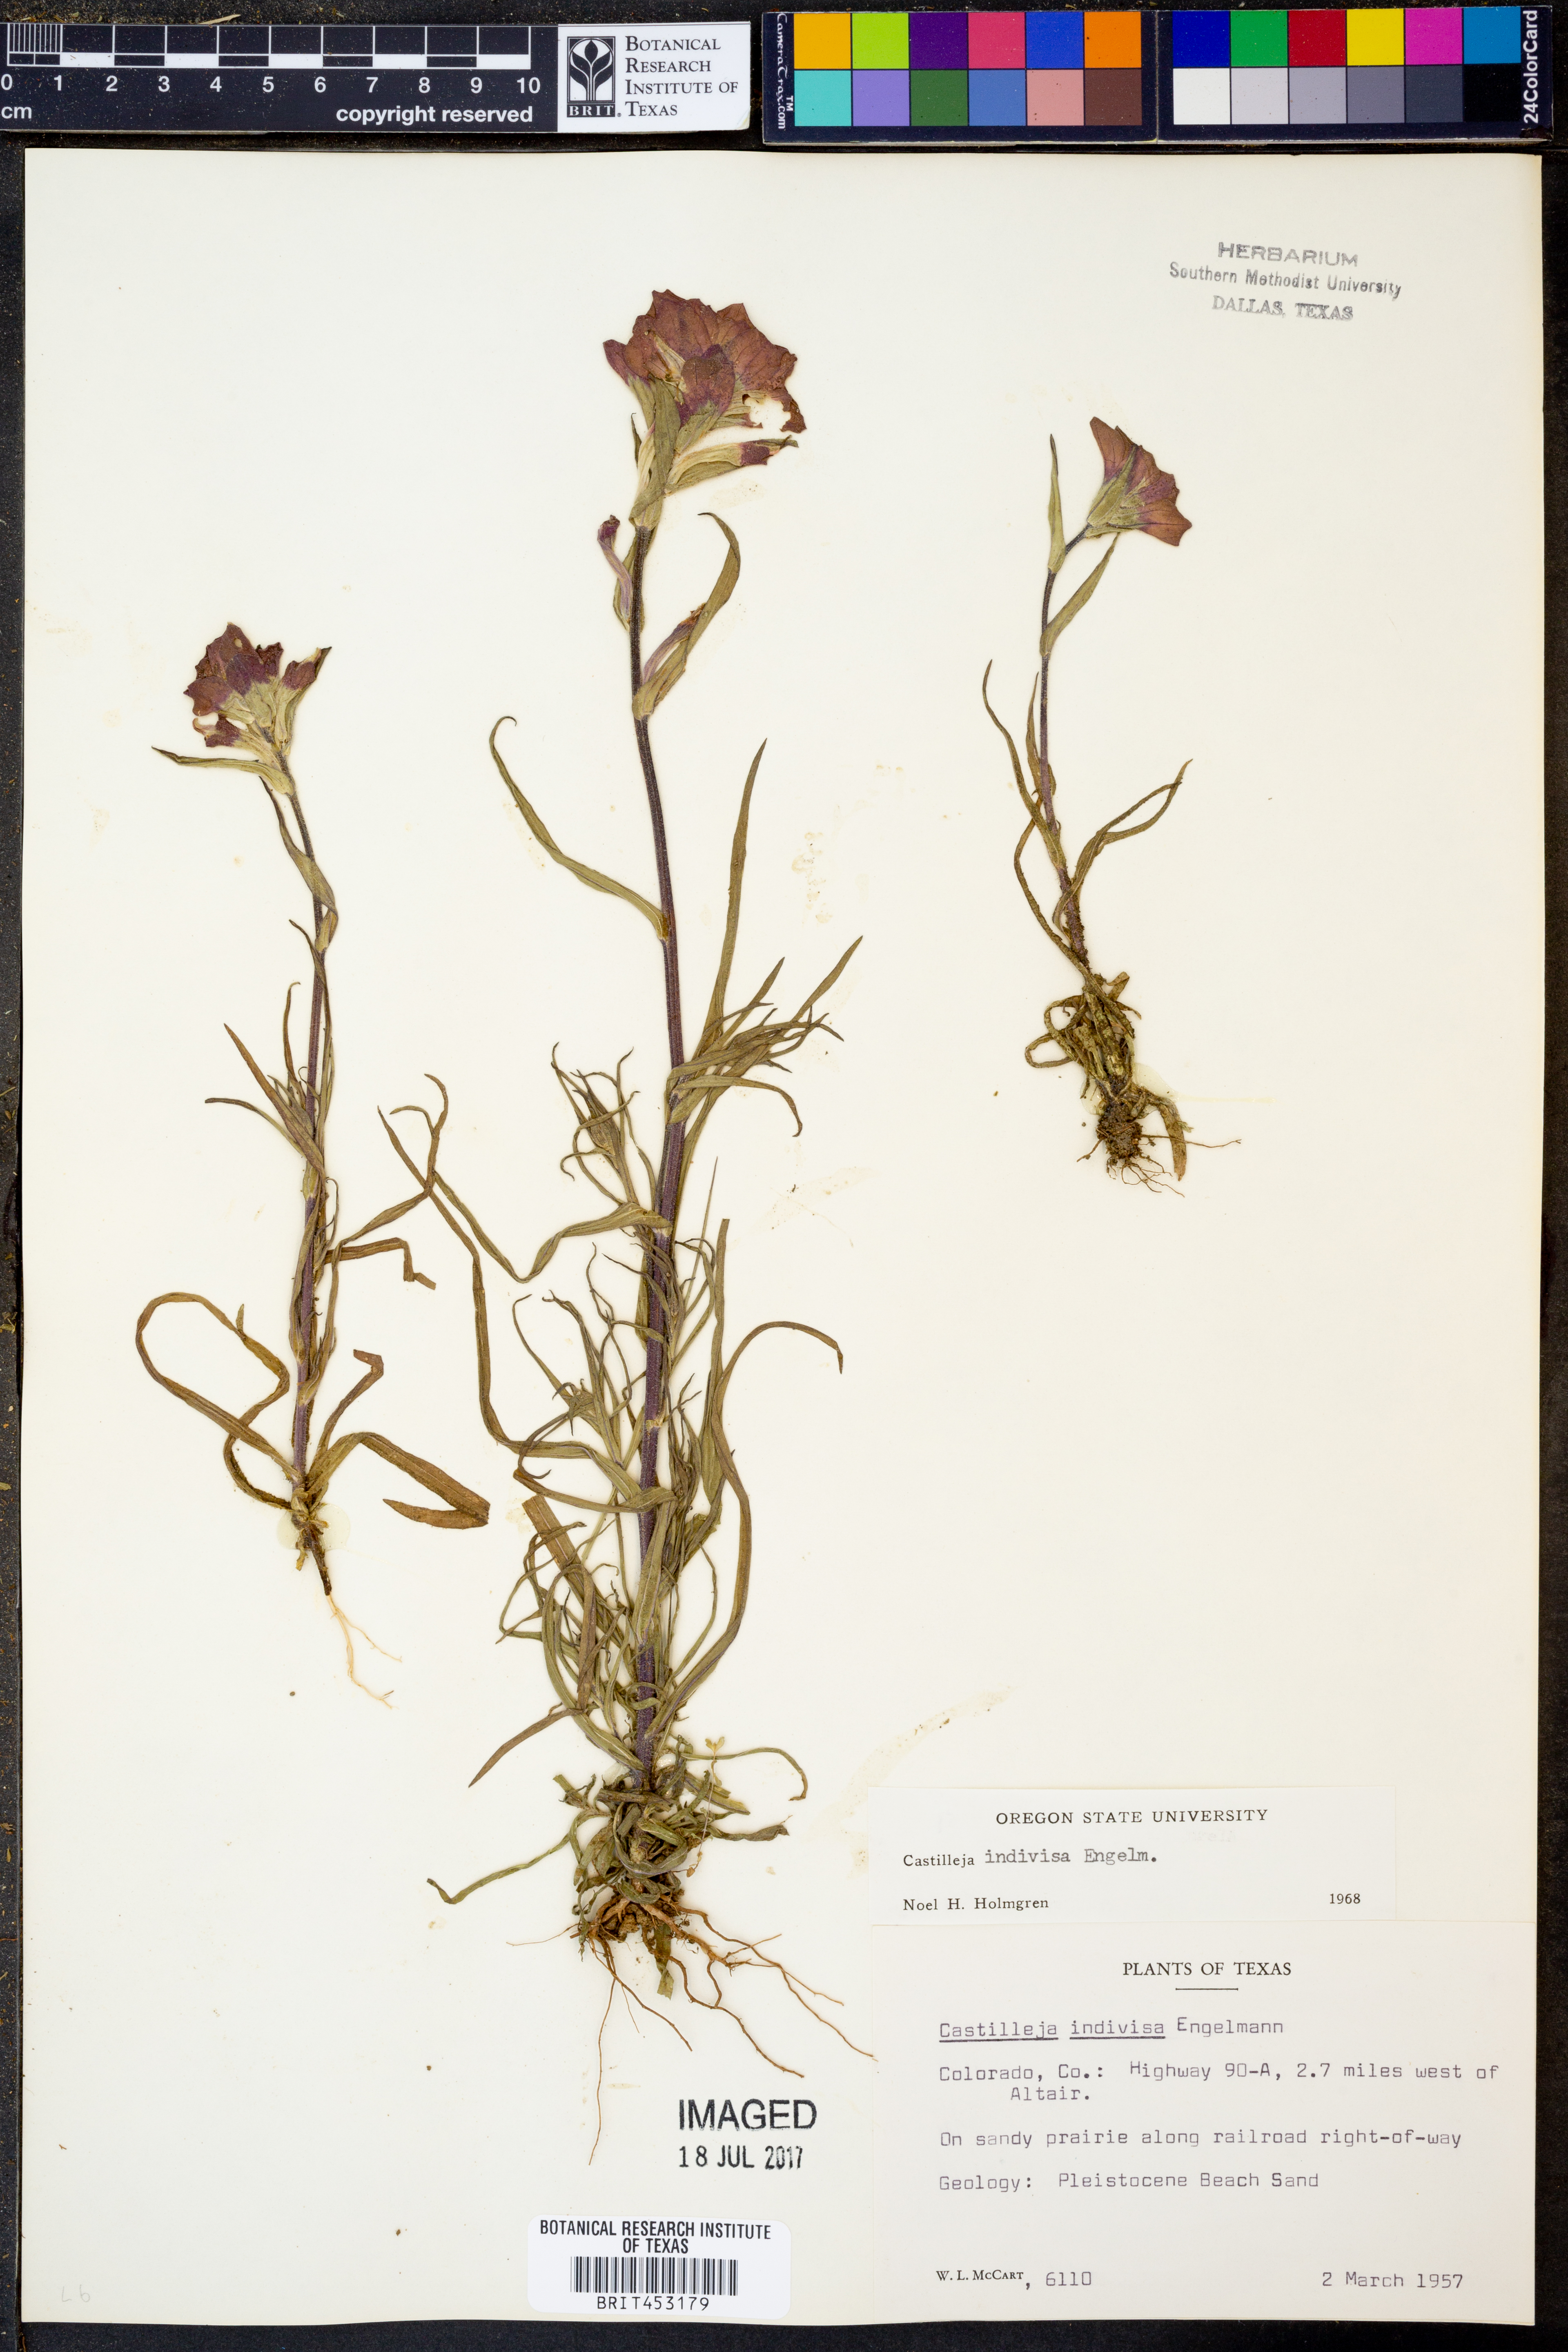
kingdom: Plantae
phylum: Tracheophyta
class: Magnoliopsida
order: Lamiales
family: Orobanchaceae
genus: Castilleja
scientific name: Castilleja indivisa
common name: Texas paintbrush
